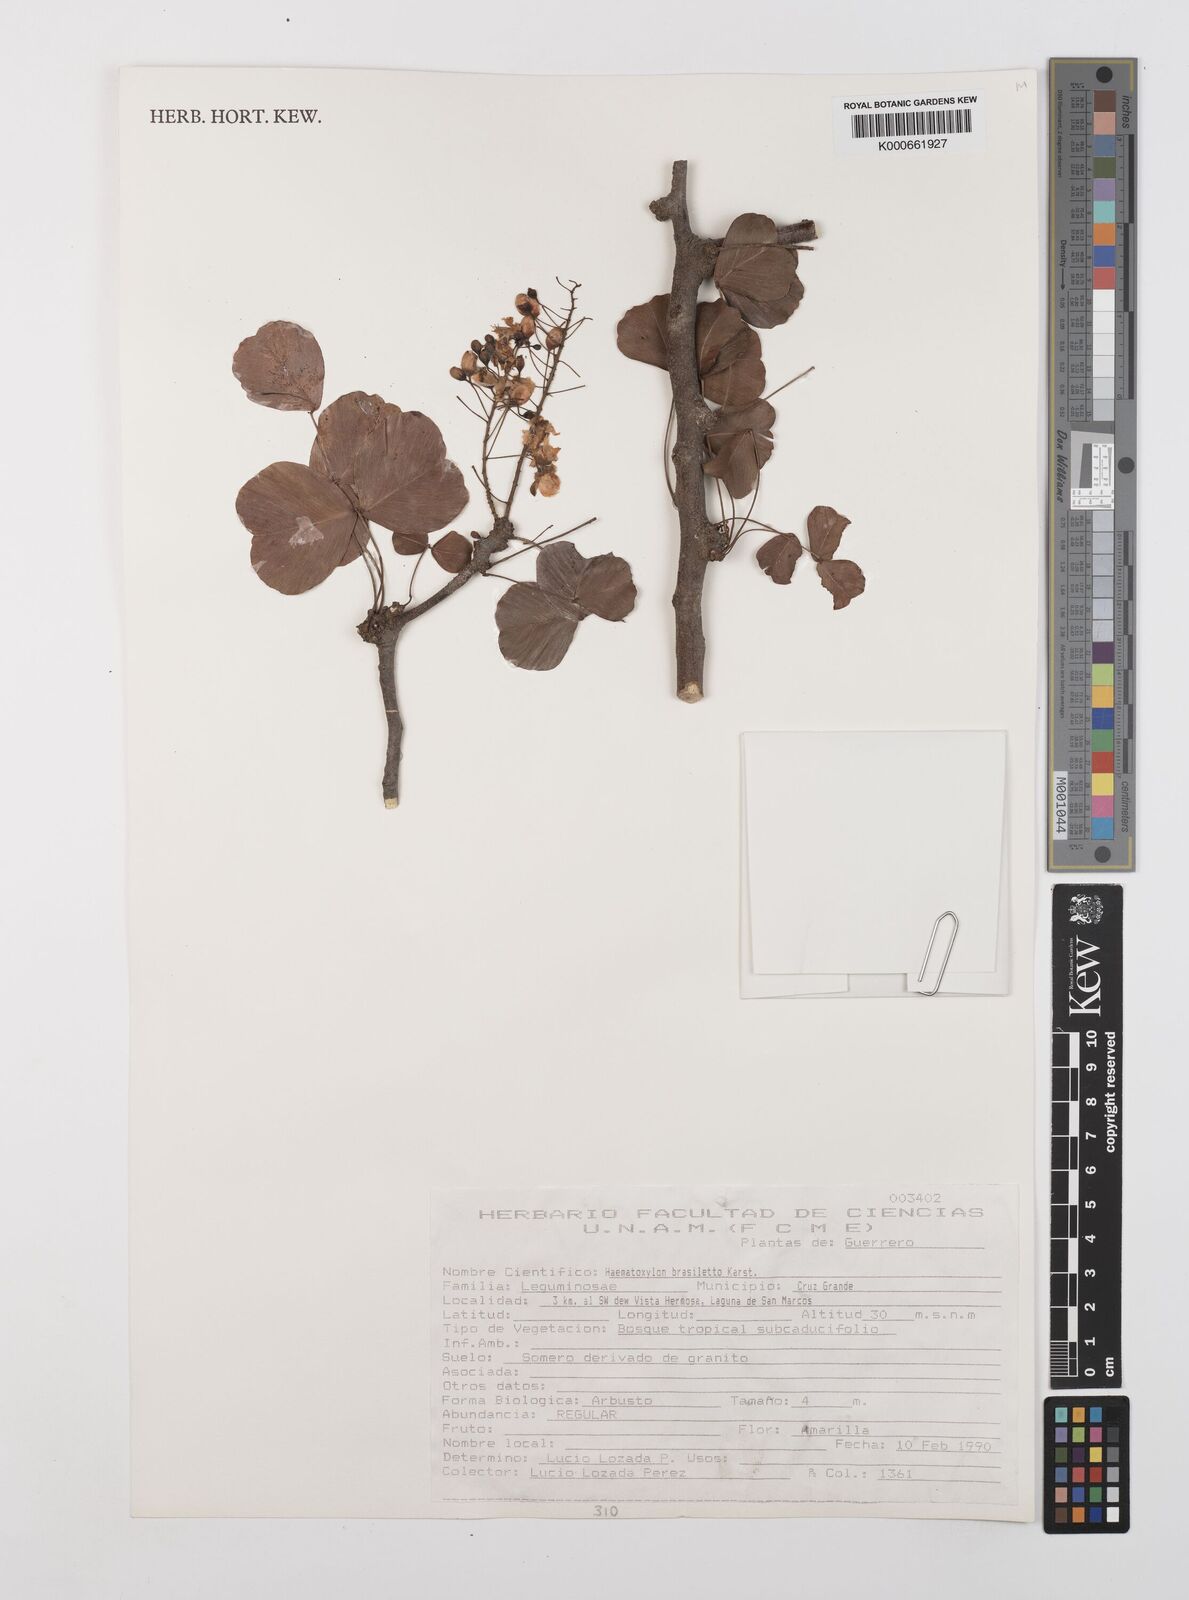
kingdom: Plantae
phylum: Tracheophyta
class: Magnoliopsida
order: Fabales
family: Fabaceae
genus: Haematoxylum
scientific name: Haematoxylum brasiletto
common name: Peachwood
